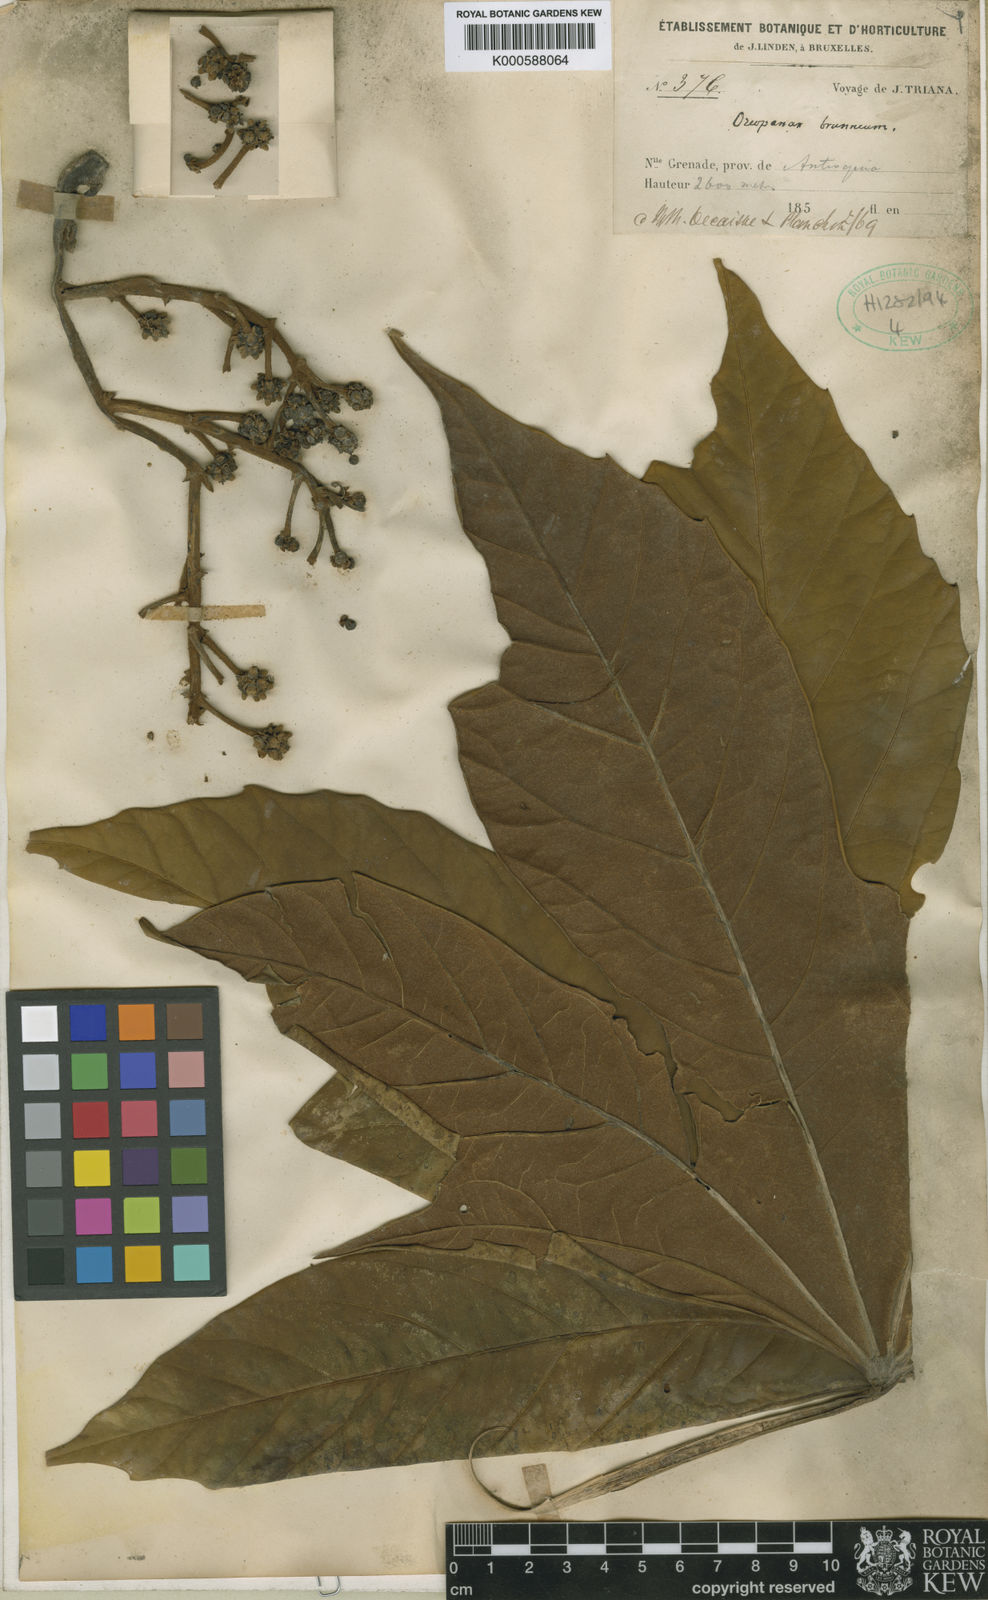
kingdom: Plantae
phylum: Tracheophyta
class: Magnoliopsida
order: Apiales
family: Araliaceae
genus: Oreopanax
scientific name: Oreopanax
